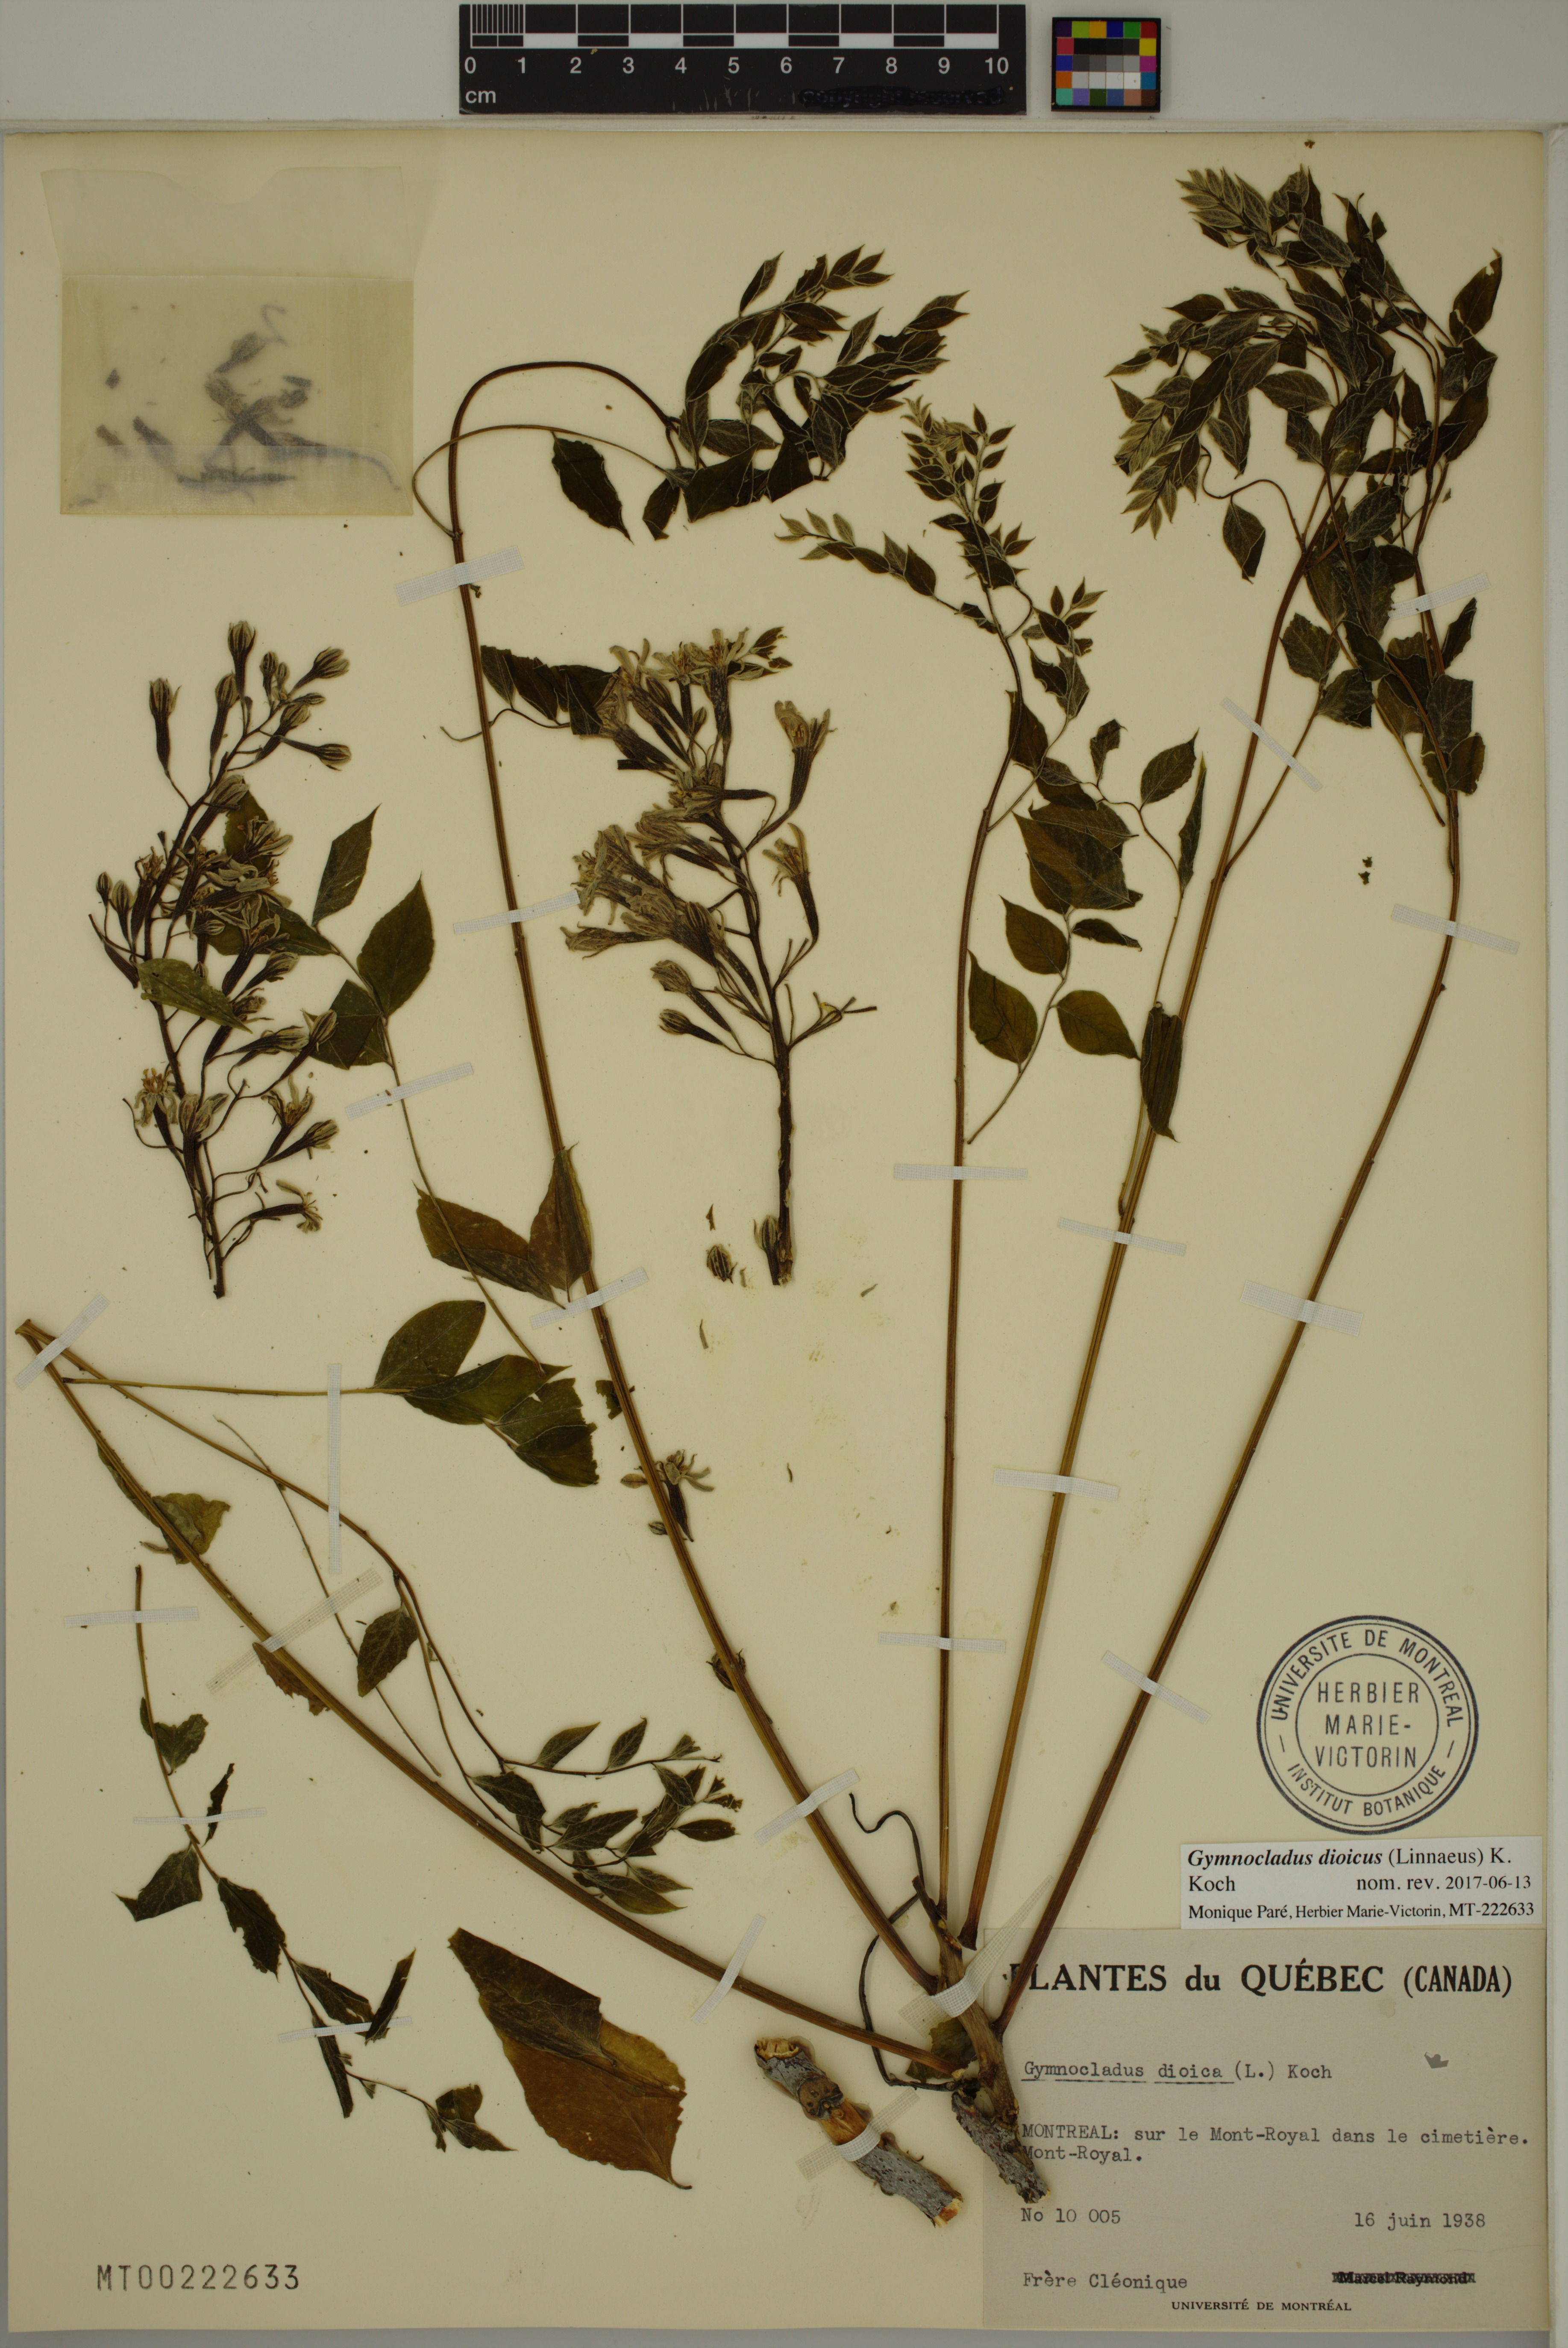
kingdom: Plantae
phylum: Tracheophyta
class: Magnoliopsida
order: Fabales
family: Fabaceae
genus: Gymnocladus
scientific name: Gymnocladus dioicus
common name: Kentucky coffee-tree
